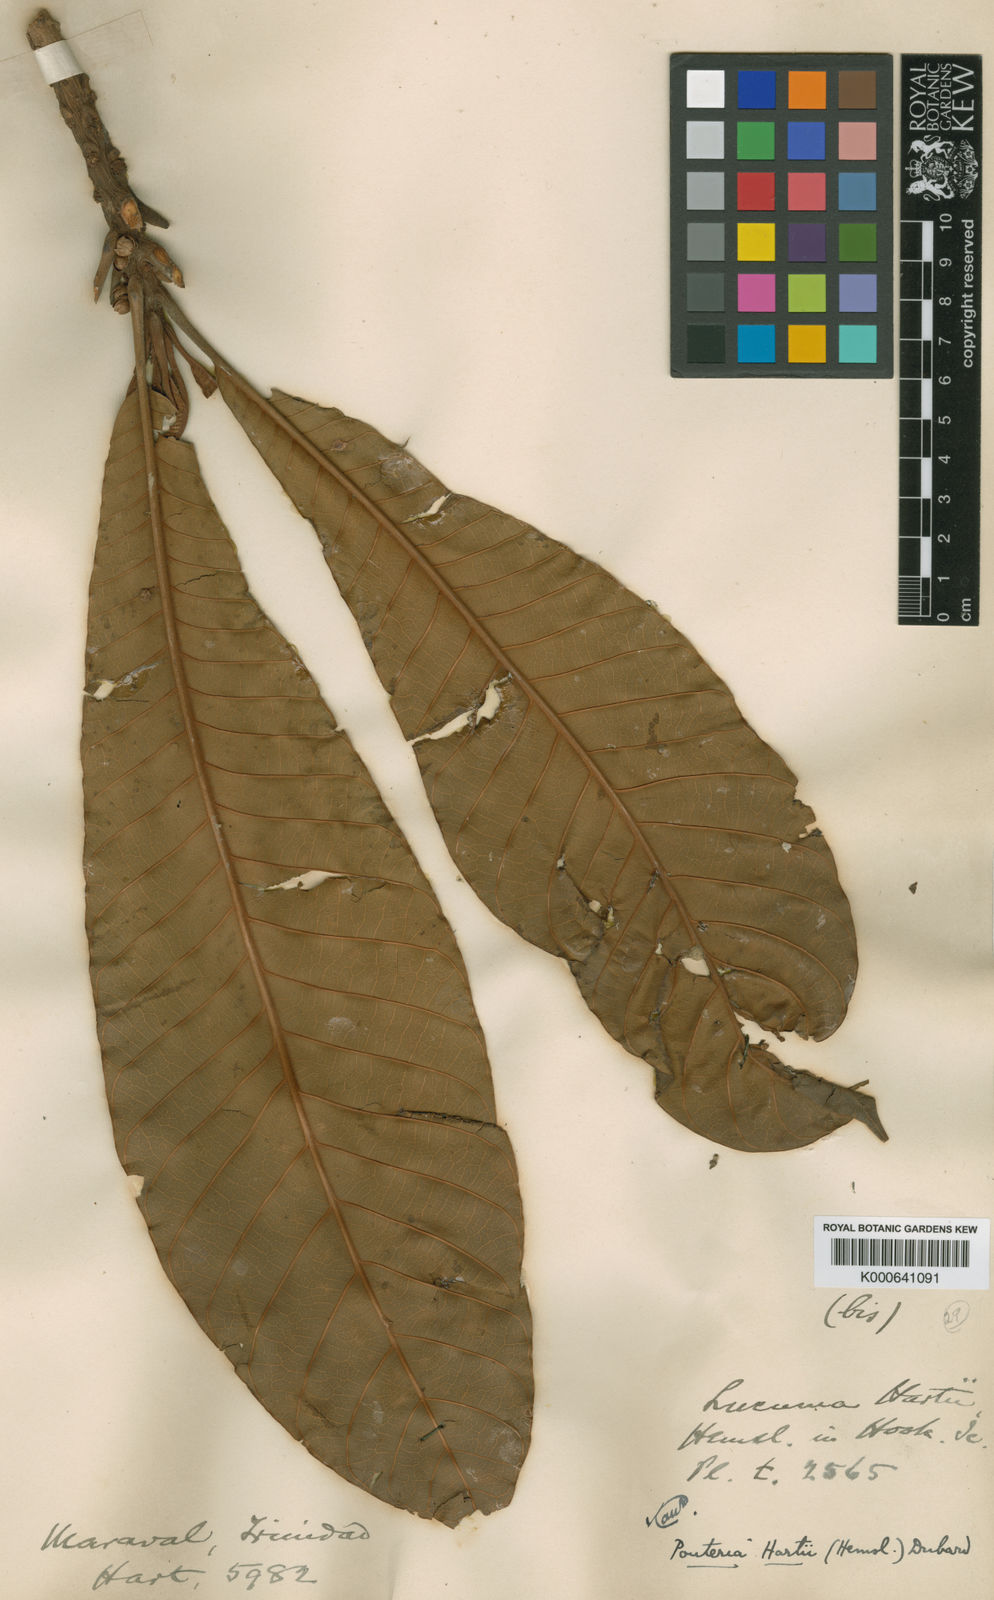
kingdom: Plantae
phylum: Tracheophyta
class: Magnoliopsida
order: Ericales
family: Sapotaceae
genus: Pouteria
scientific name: Pouteria guianensis
